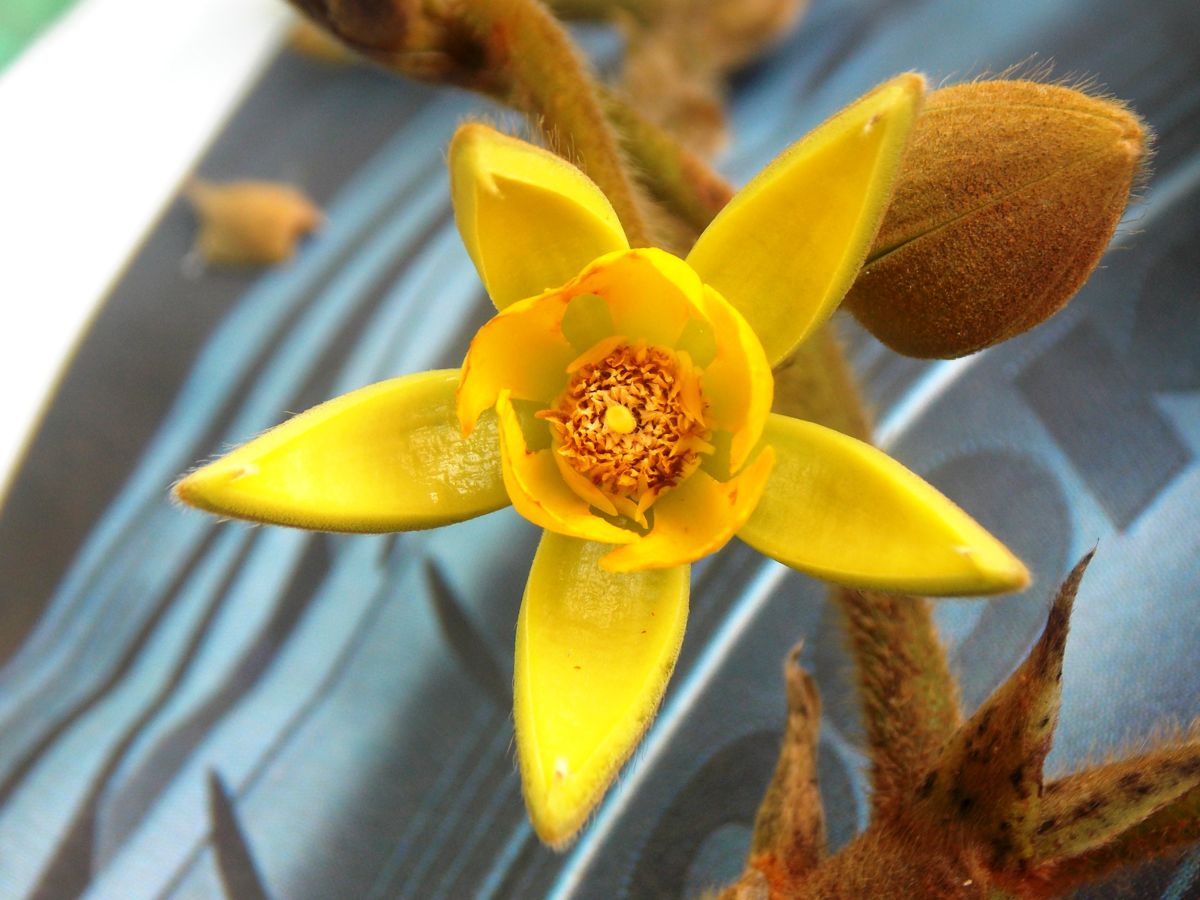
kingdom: Plantae
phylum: Tracheophyta
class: Magnoliopsida
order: Malvales
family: Malvaceae
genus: Apeiba
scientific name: Apeiba tibourbou
